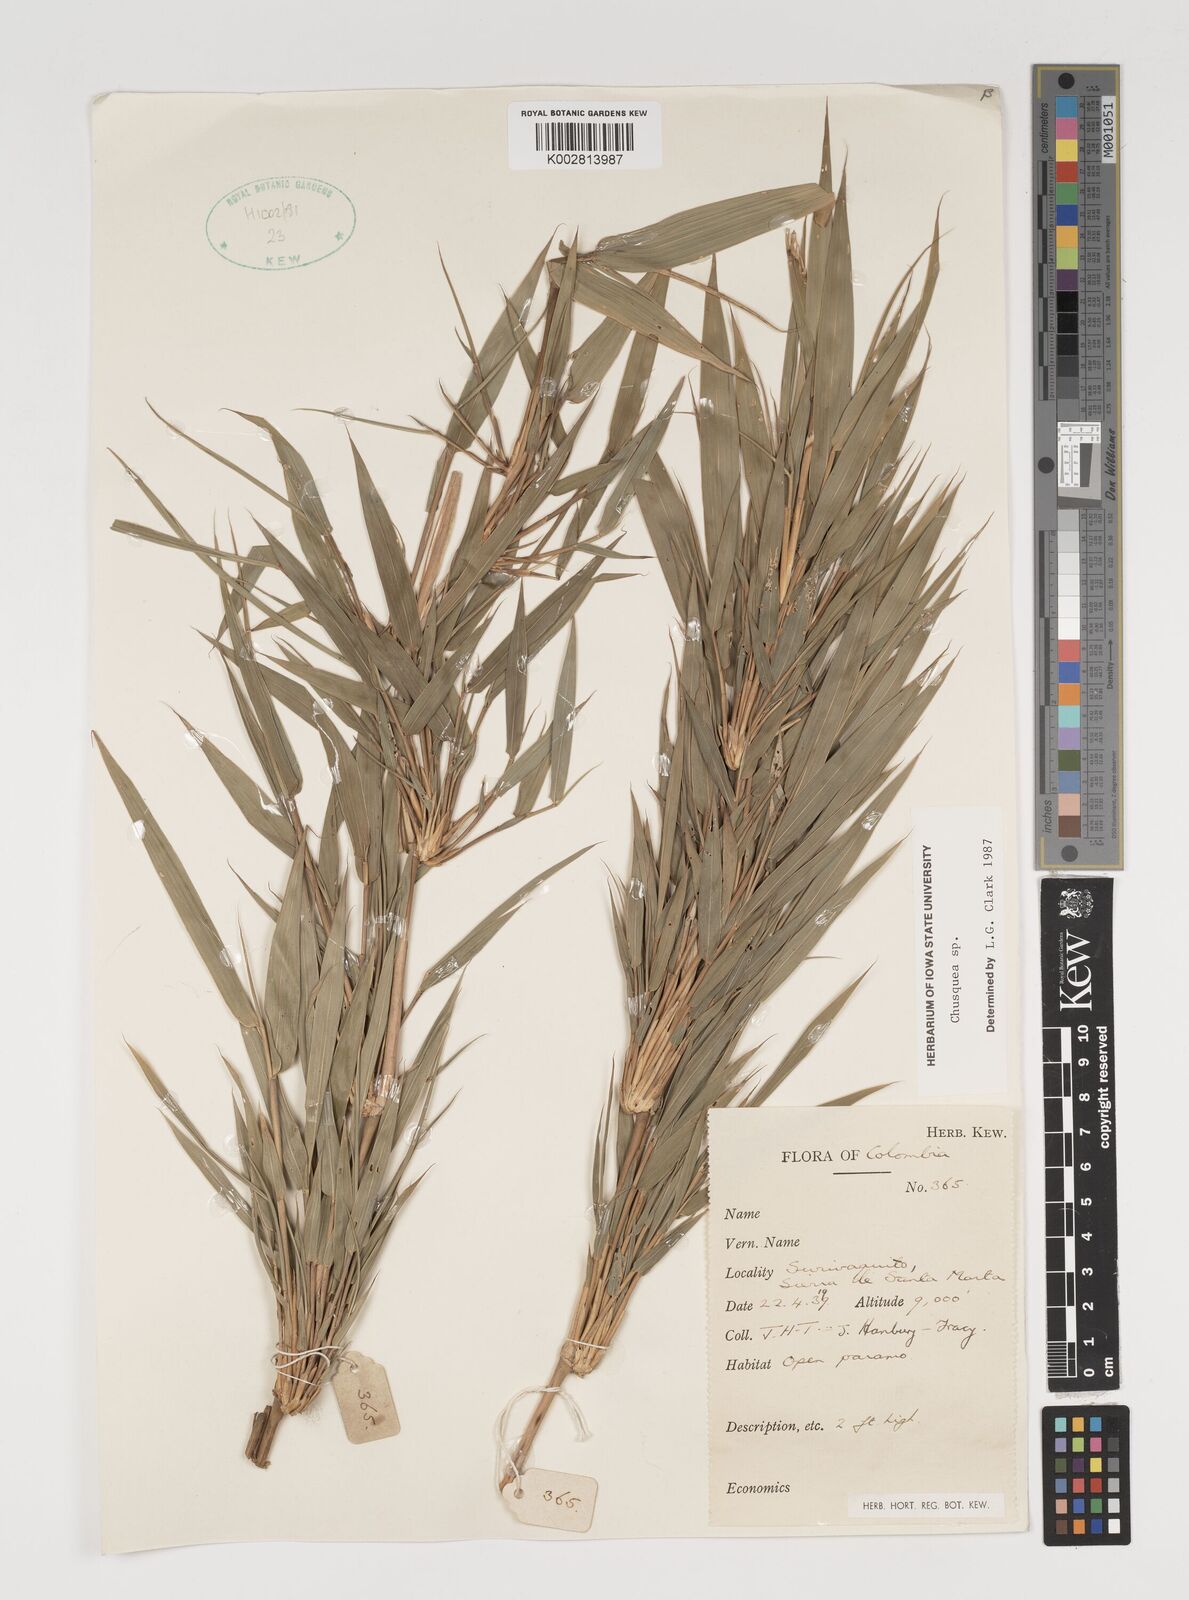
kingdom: Plantae
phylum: Tracheophyta
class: Liliopsida
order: Poales
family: Poaceae
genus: Chusquea
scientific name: Chusquea
